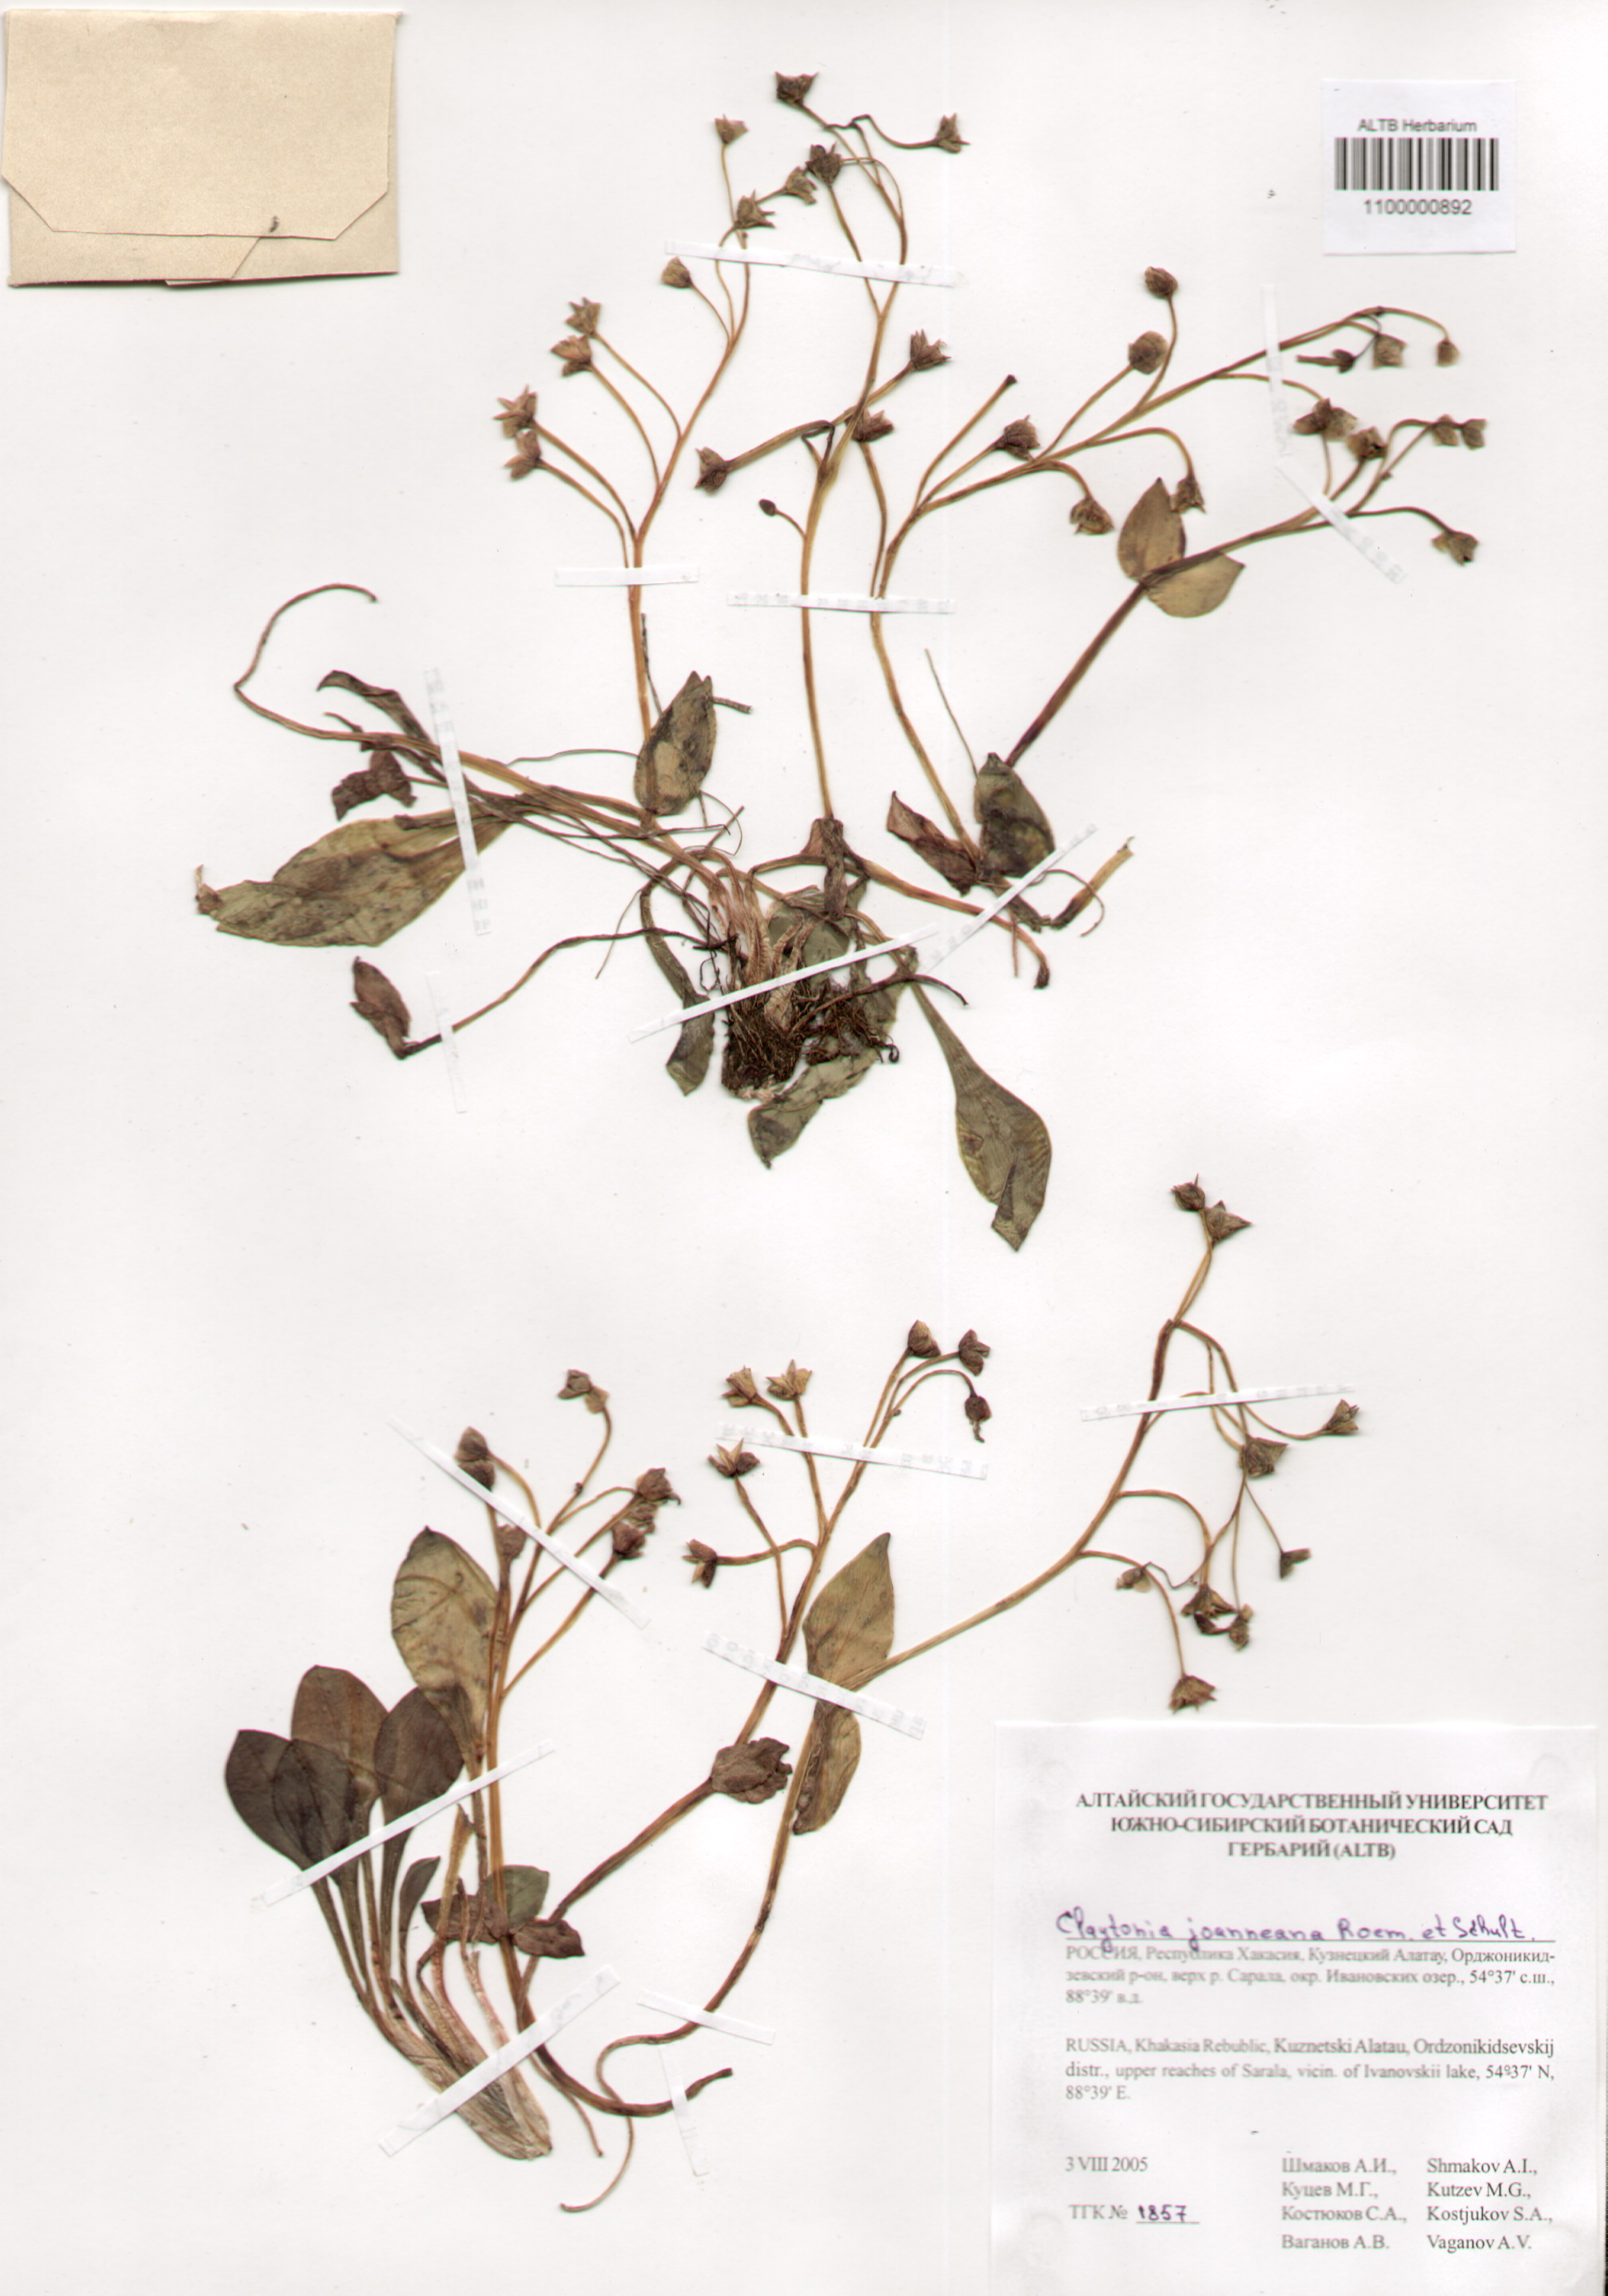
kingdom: Plantae
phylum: Tracheophyta
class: Magnoliopsida
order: Caryophyllales
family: Montiaceae
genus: Claytonia
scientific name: Claytonia joanneana
